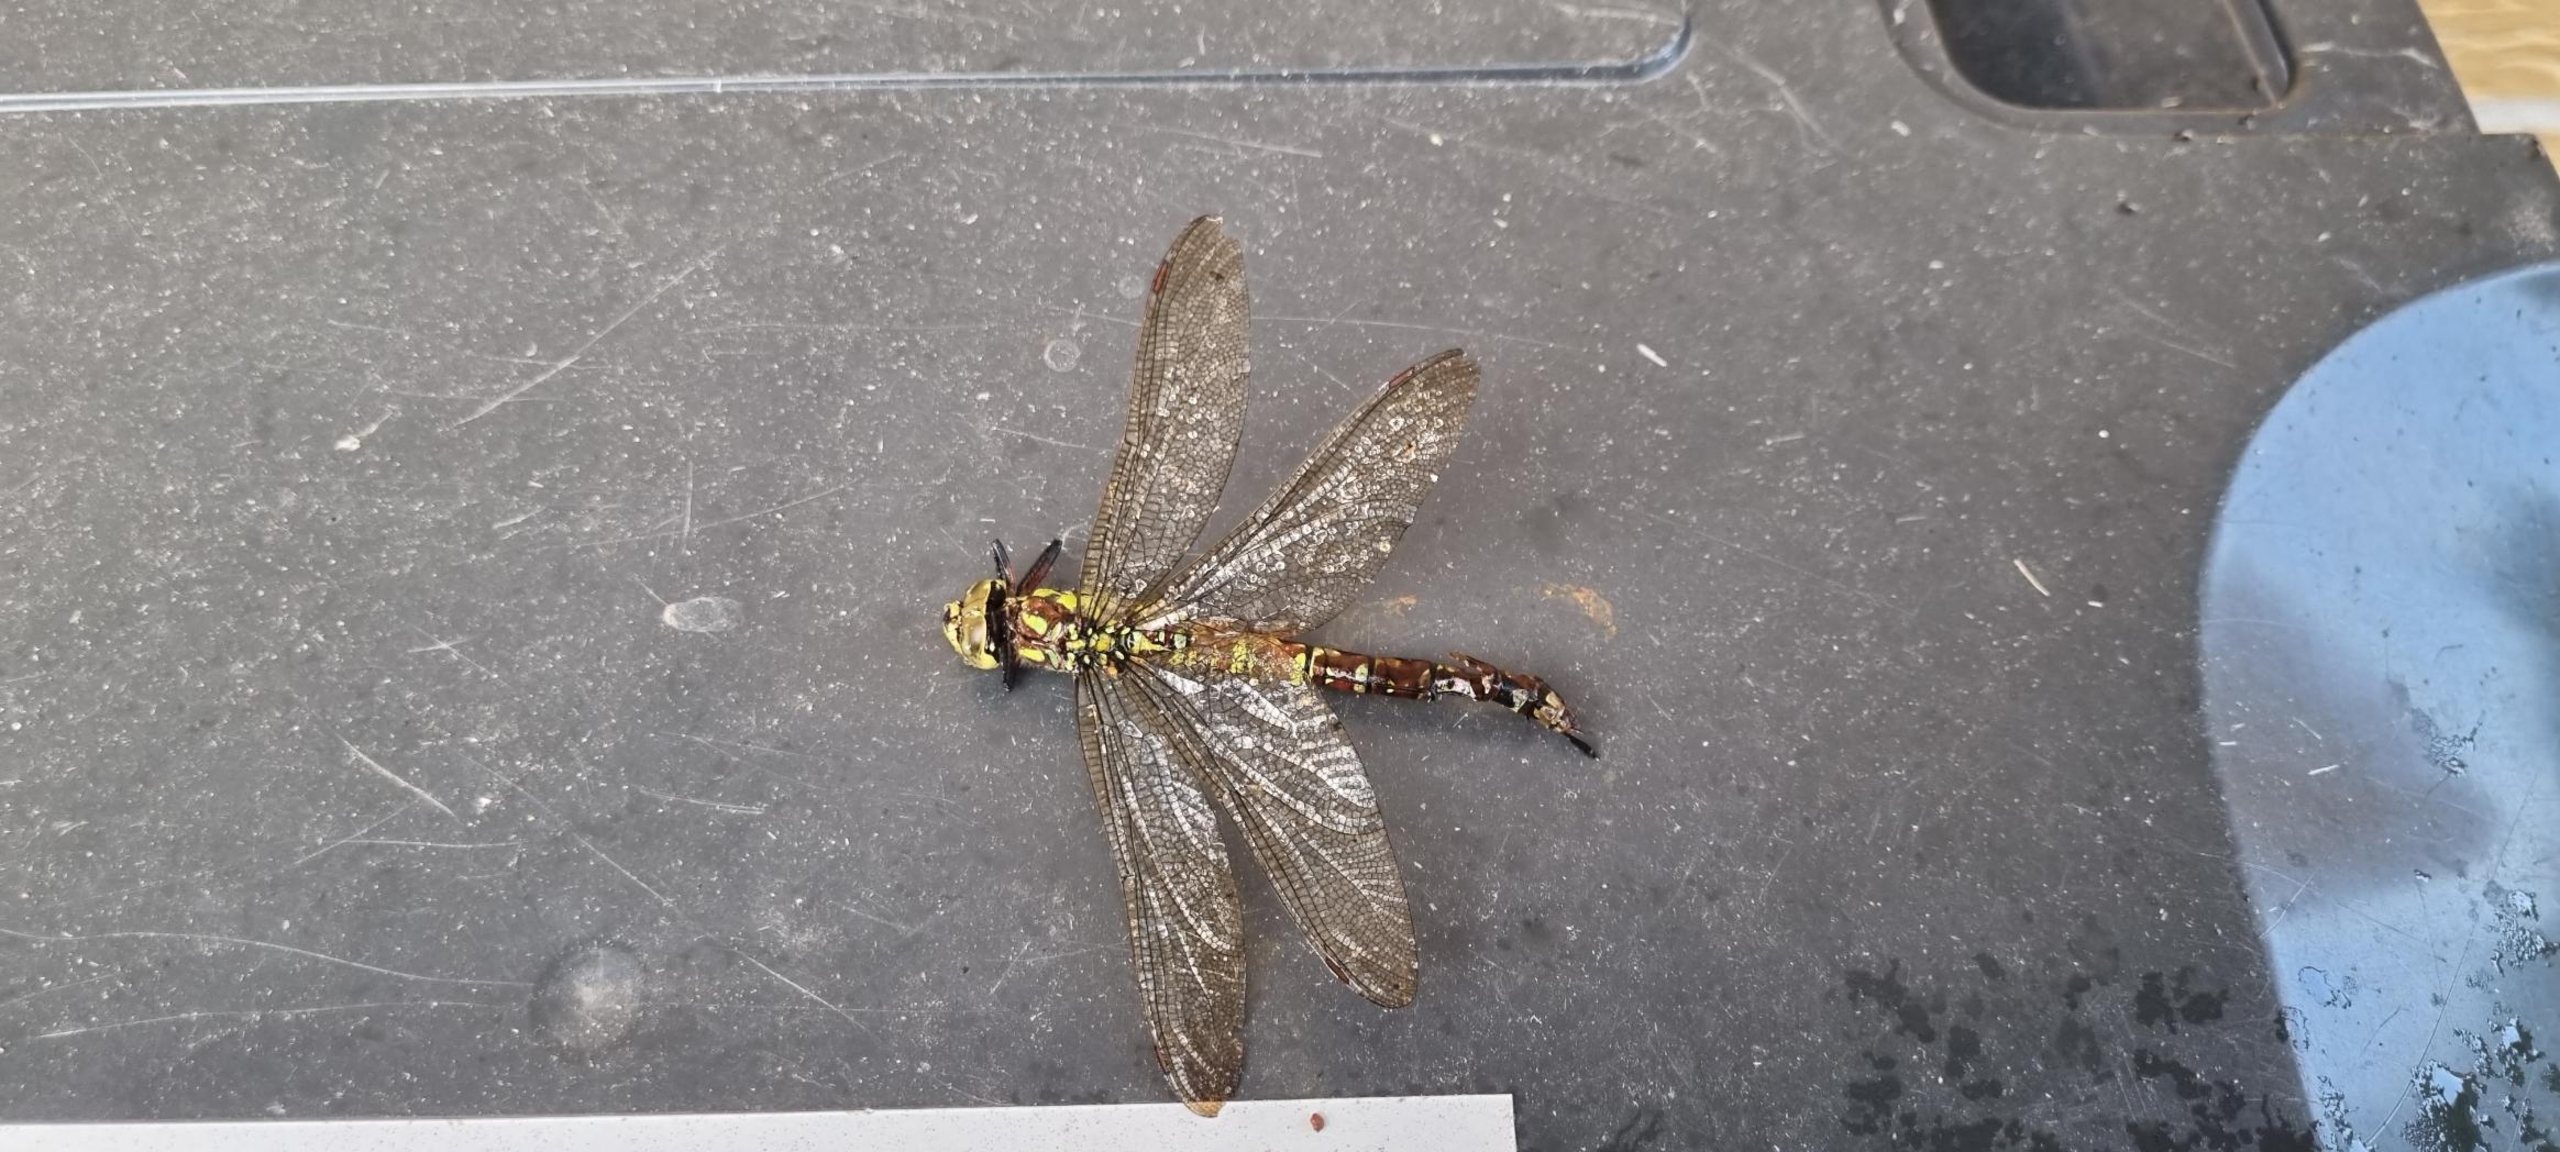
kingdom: Animalia
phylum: Arthropoda
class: Insecta
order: Odonata
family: Aeshnidae
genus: Aeshna
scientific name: Aeshna cyanea
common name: Blå mosaikguldsmed
